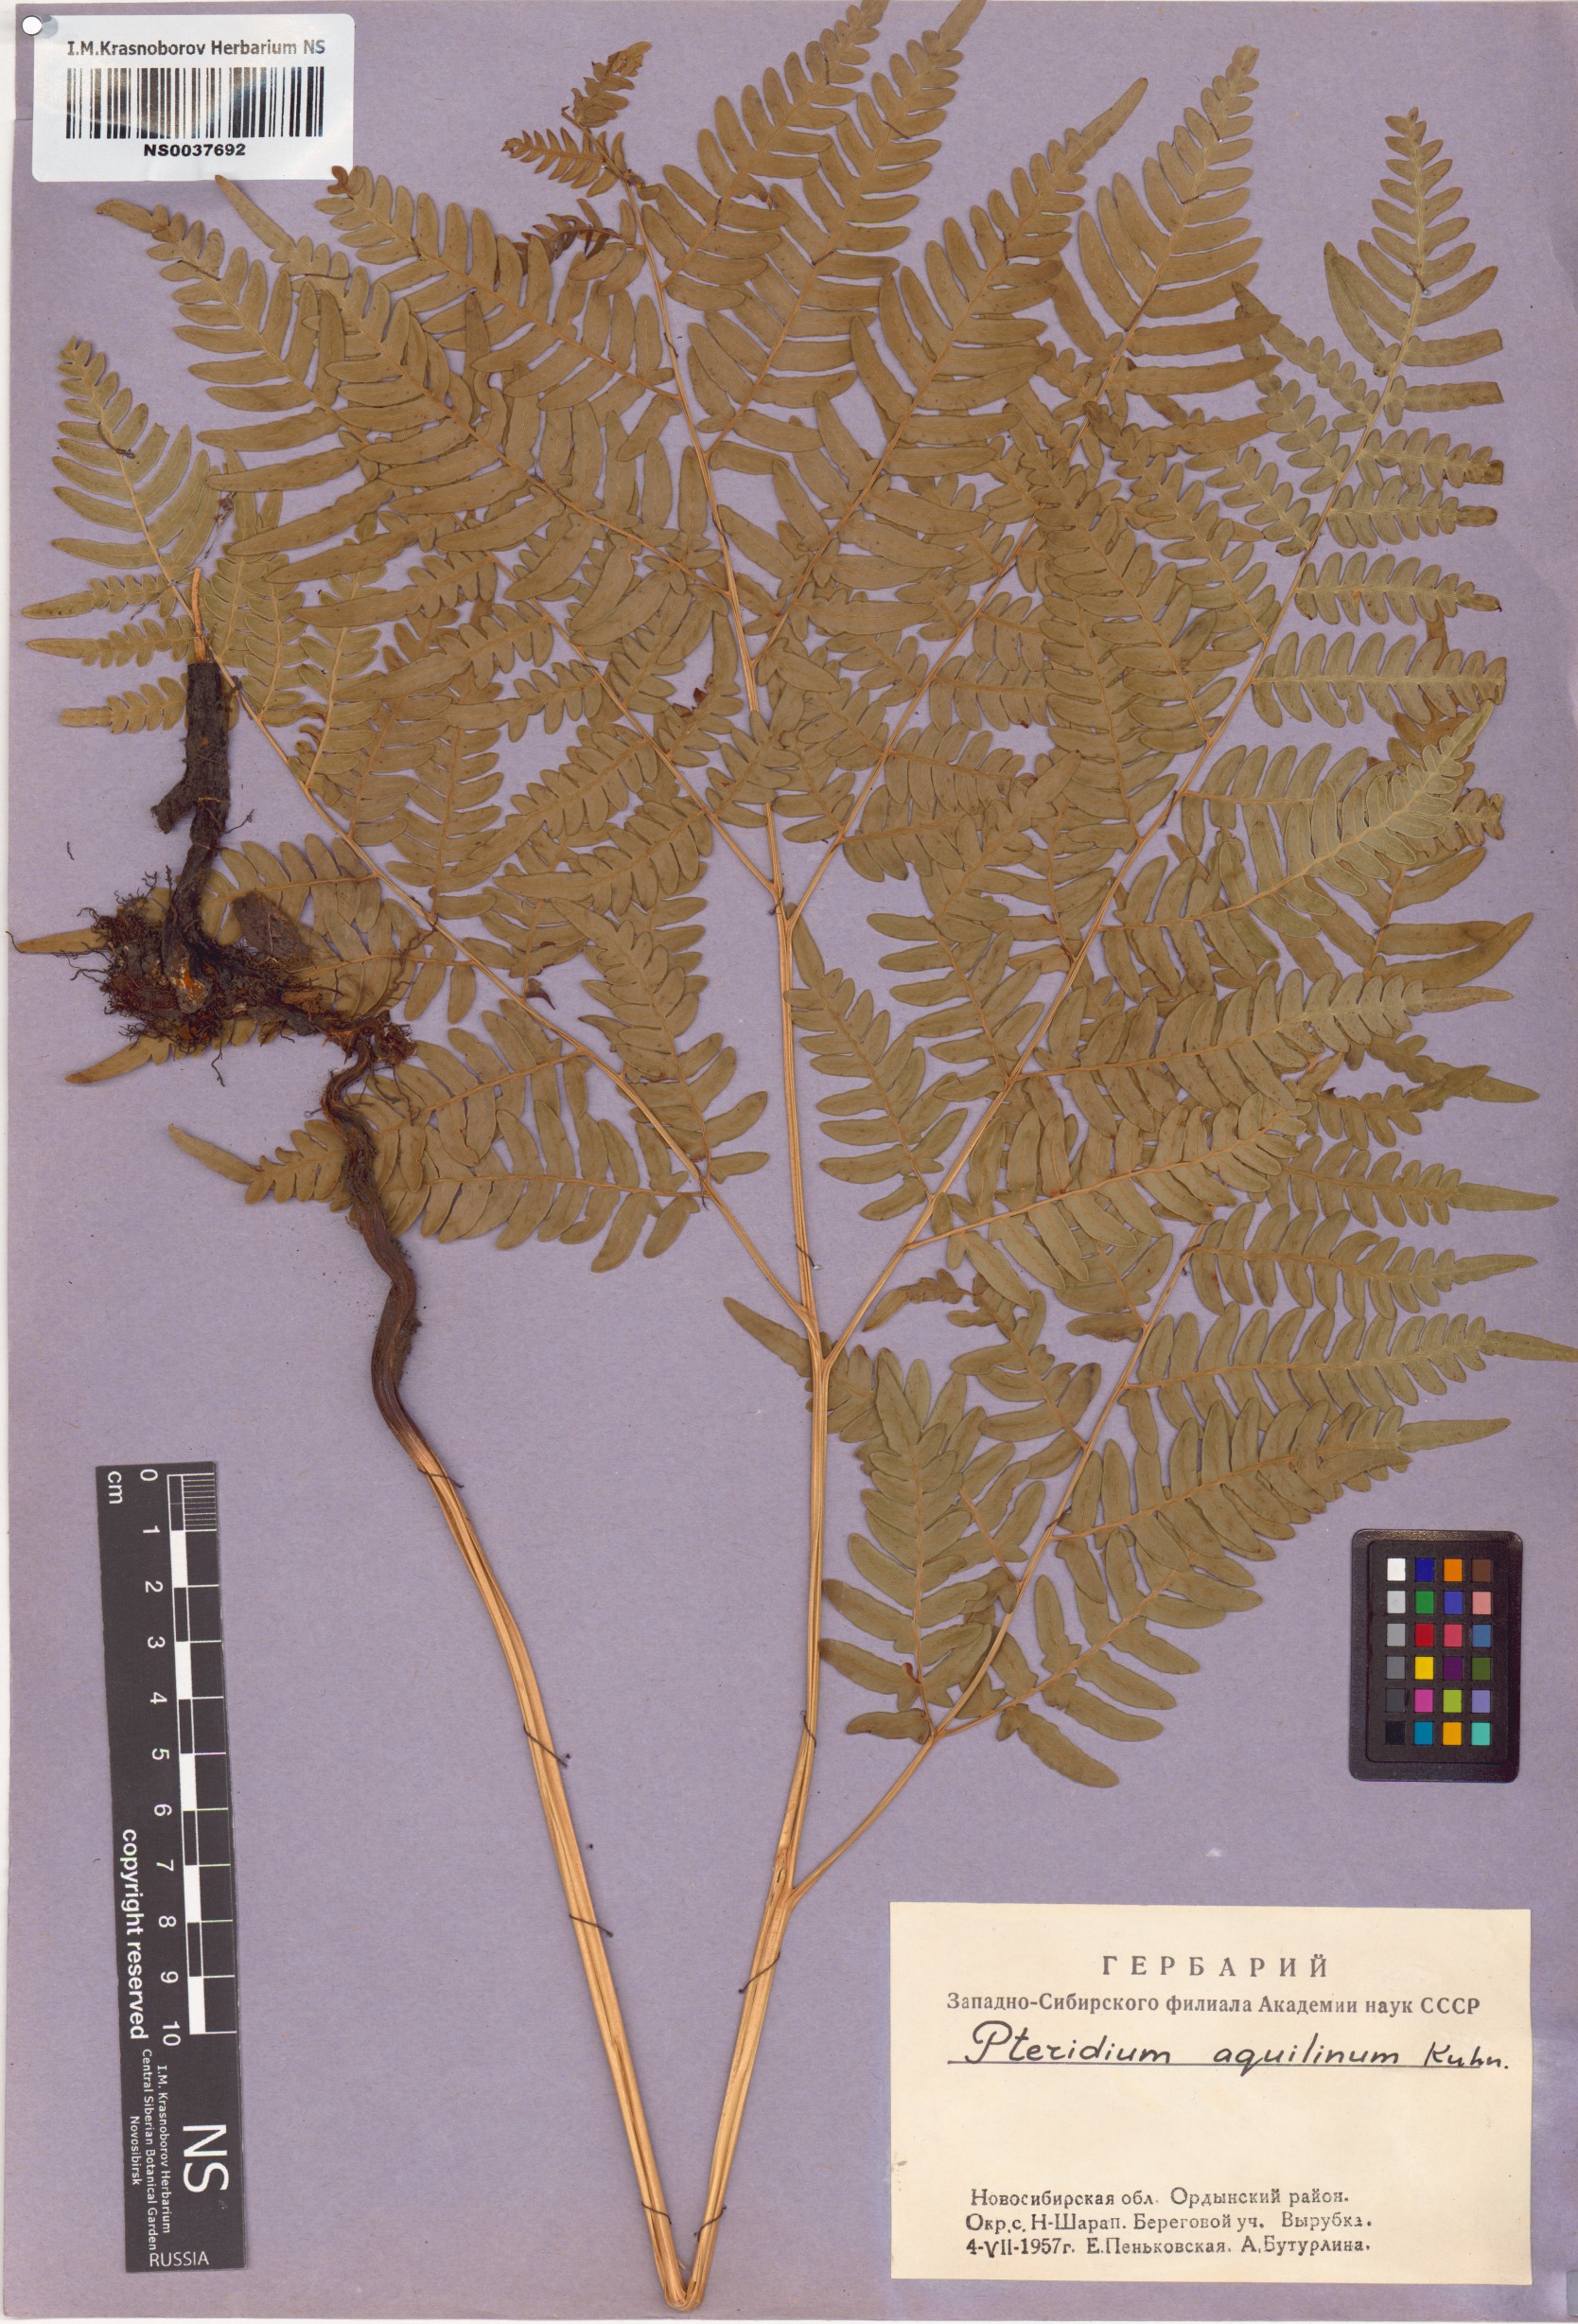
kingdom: Plantae
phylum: Tracheophyta
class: Polypodiopsida
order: Polypodiales
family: Dennstaedtiaceae
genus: Pteridium
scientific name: Pteridium aquilinum
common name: Bracken
